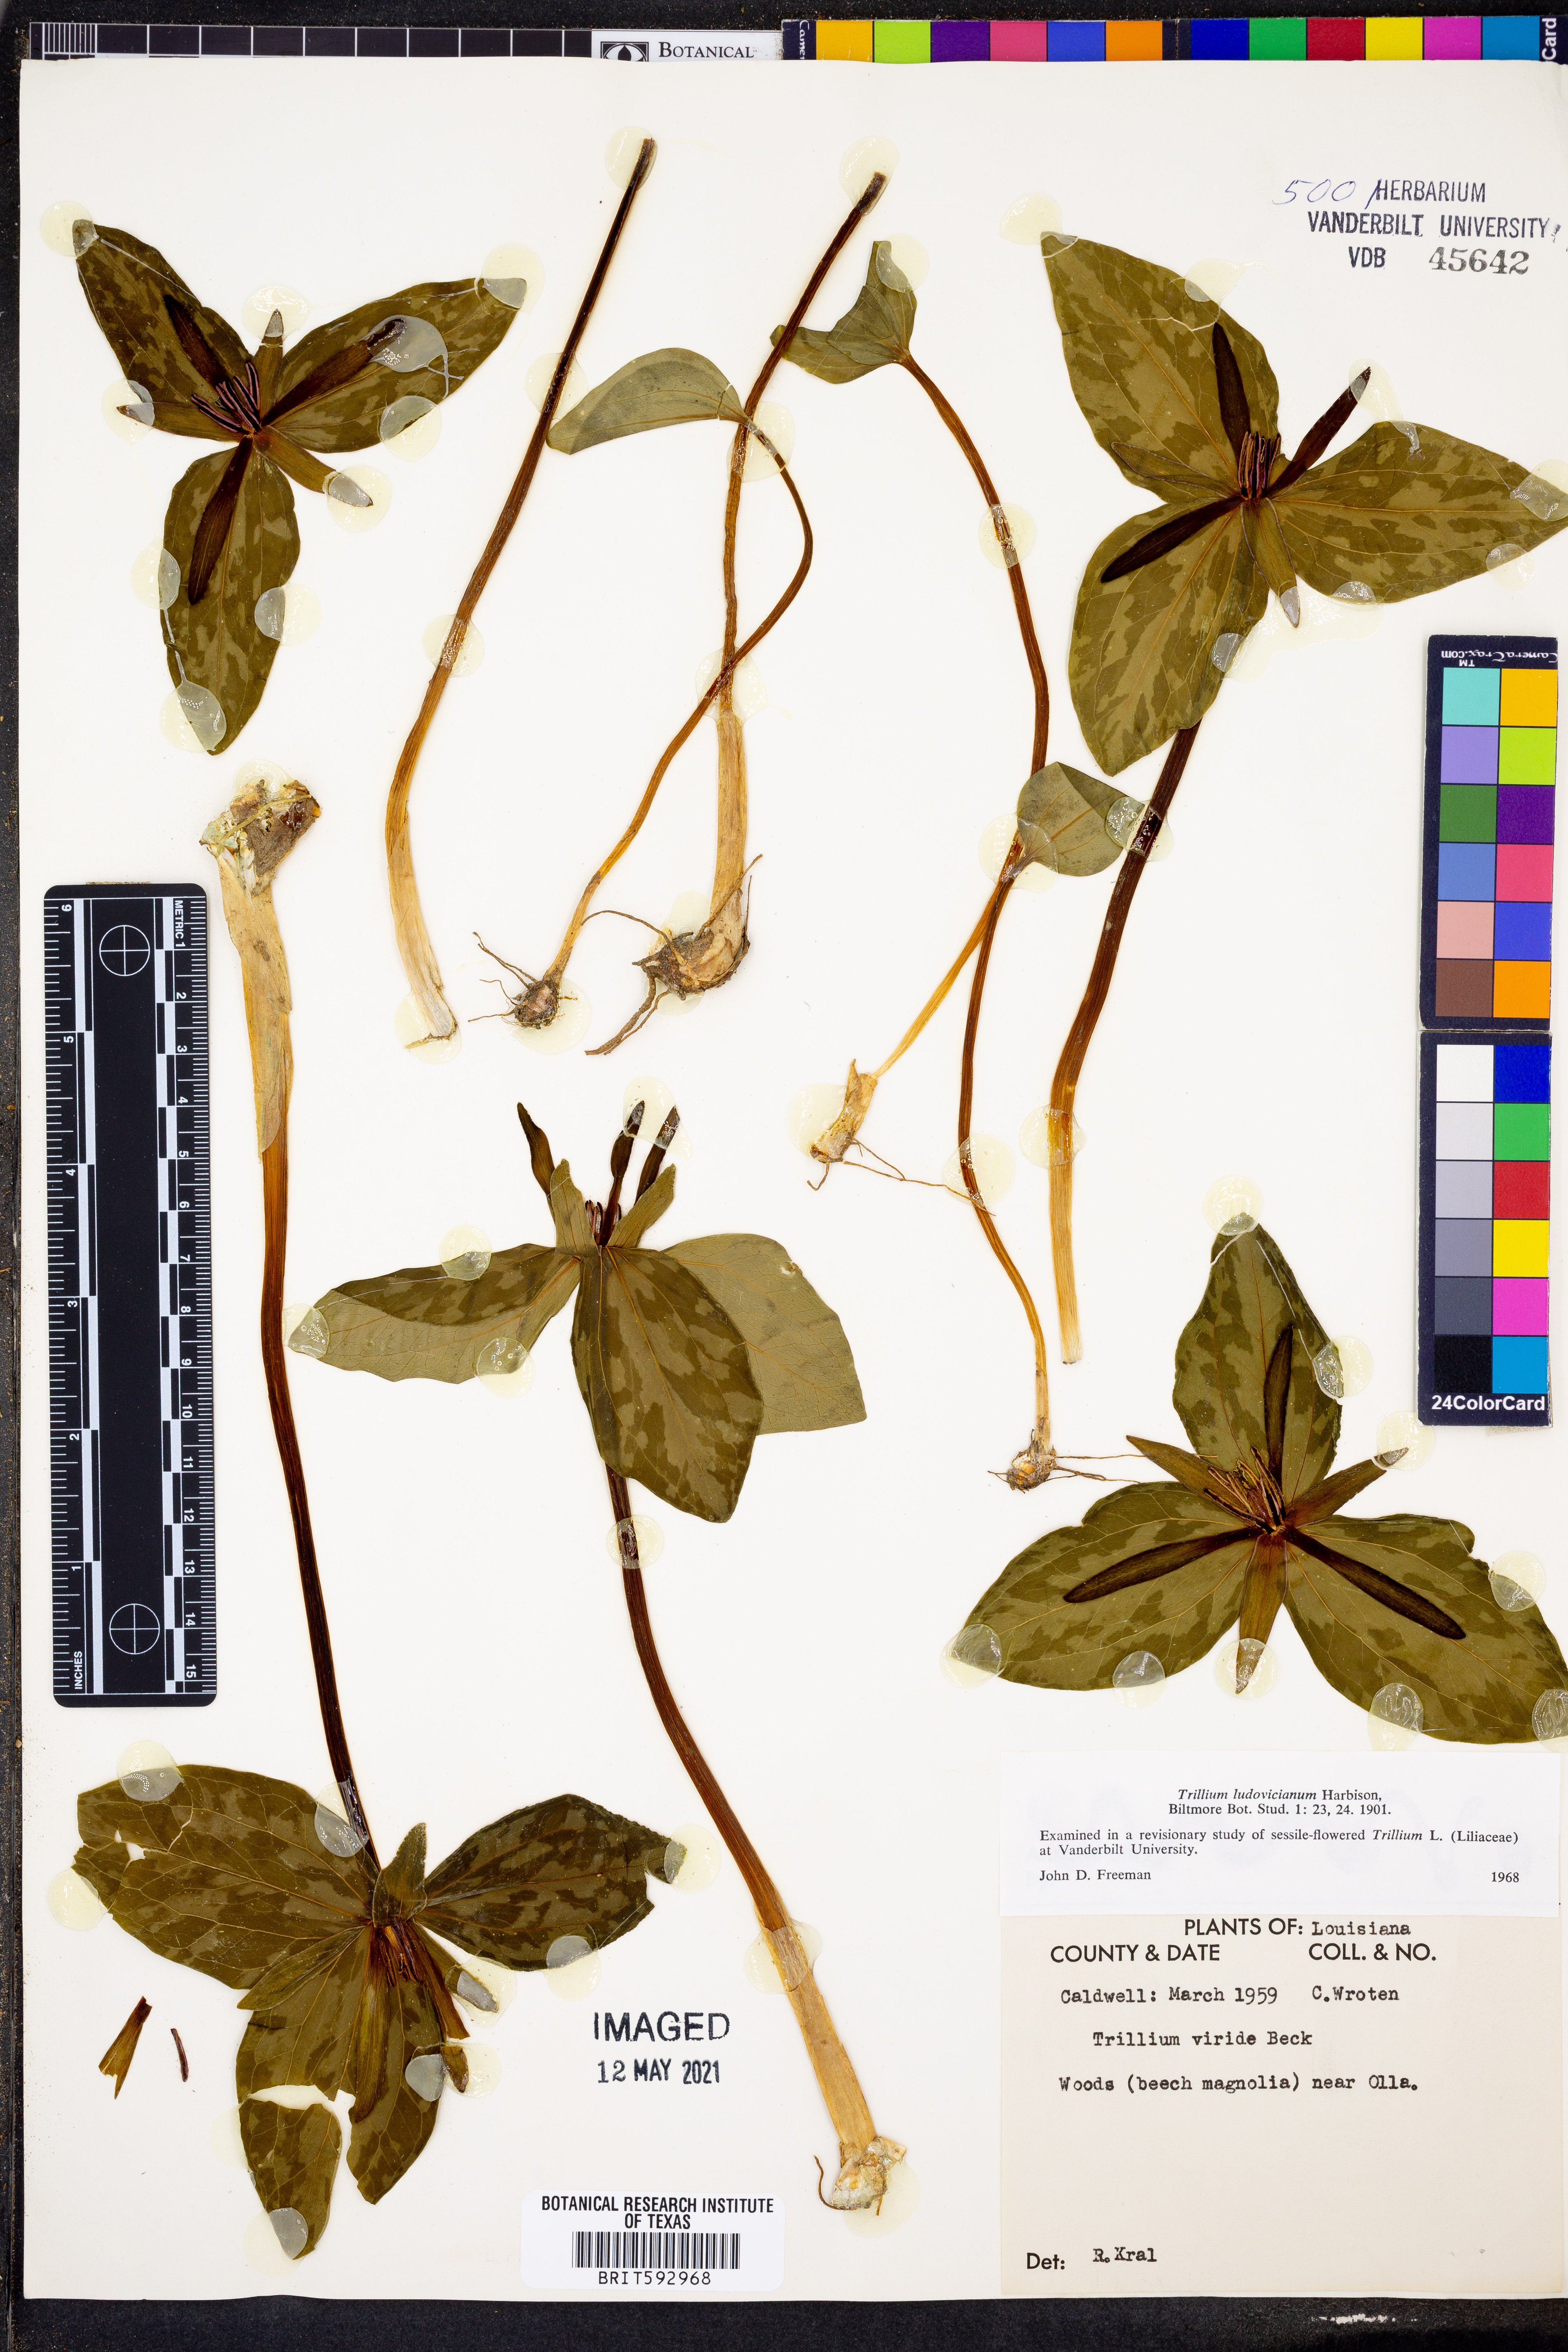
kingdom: Plantae
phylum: Tracheophyta
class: Liliopsida
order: Liliales
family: Melanthiaceae
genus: Trillium
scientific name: Trillium ludovicianum
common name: Louisiana toadshade
